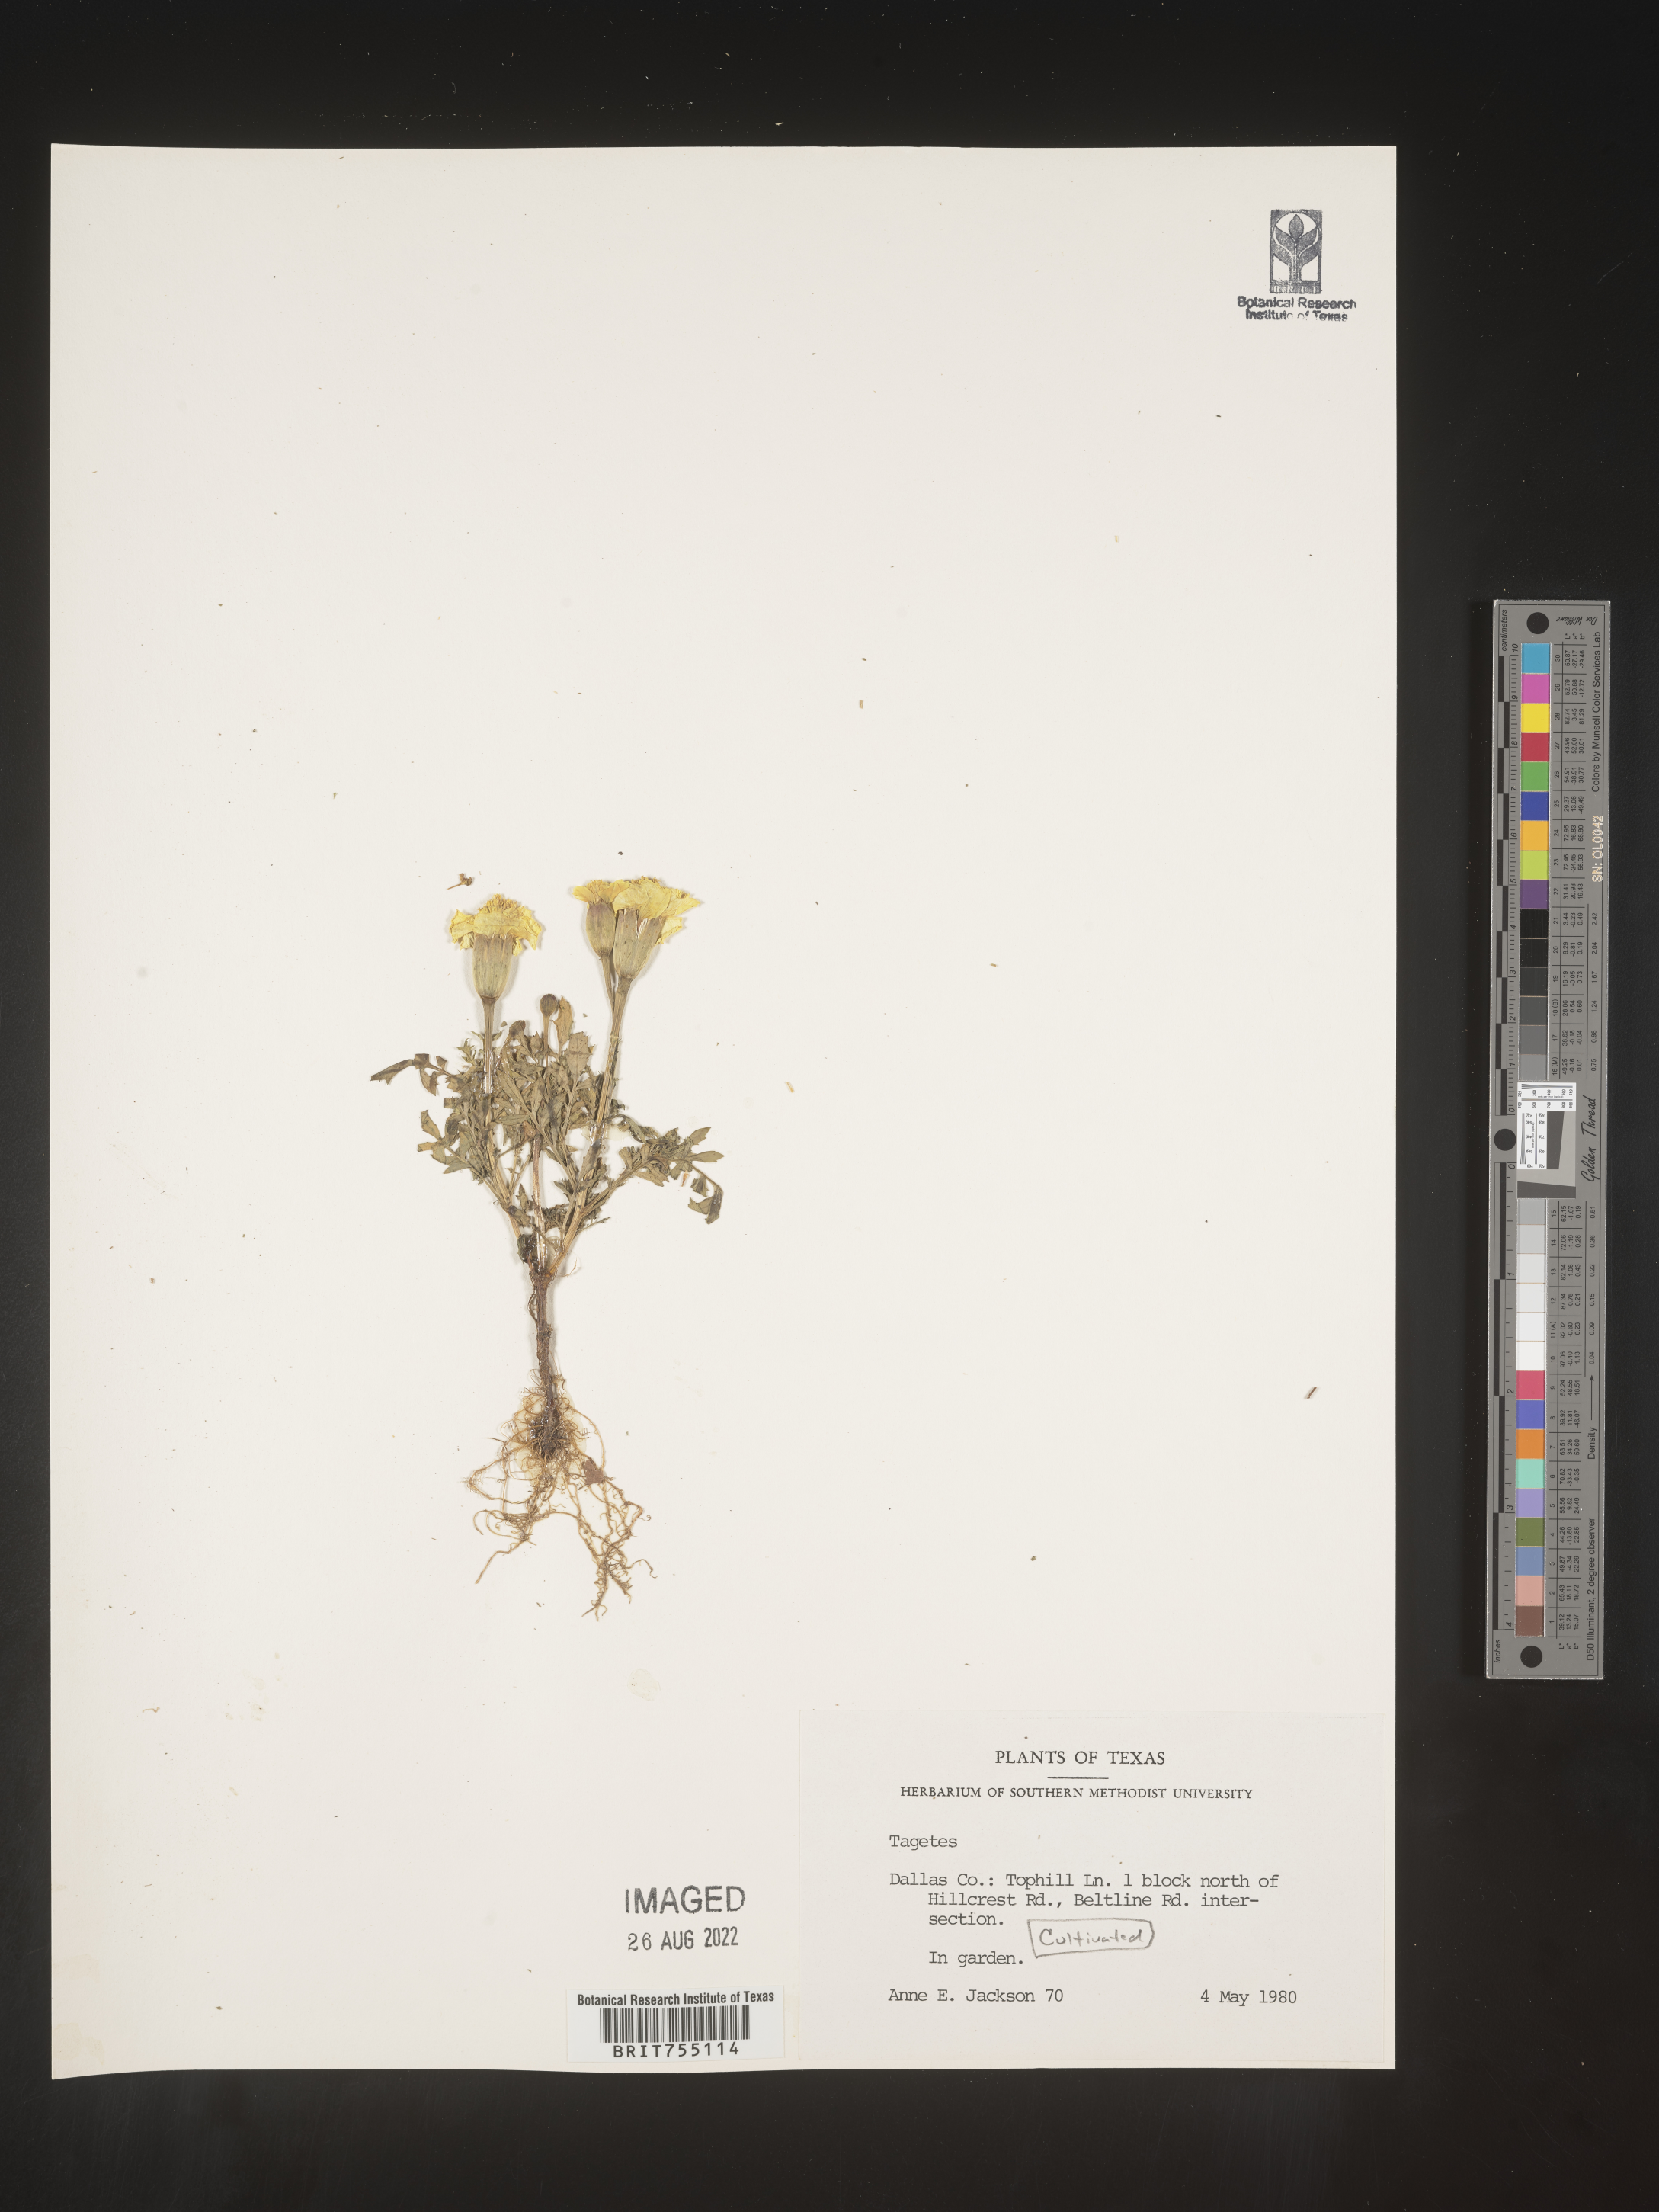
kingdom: Plantae
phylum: Tracheophyta
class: Magnoliopsida
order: Asterales
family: Asteraceae
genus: Tagetes
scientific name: Tagetes
